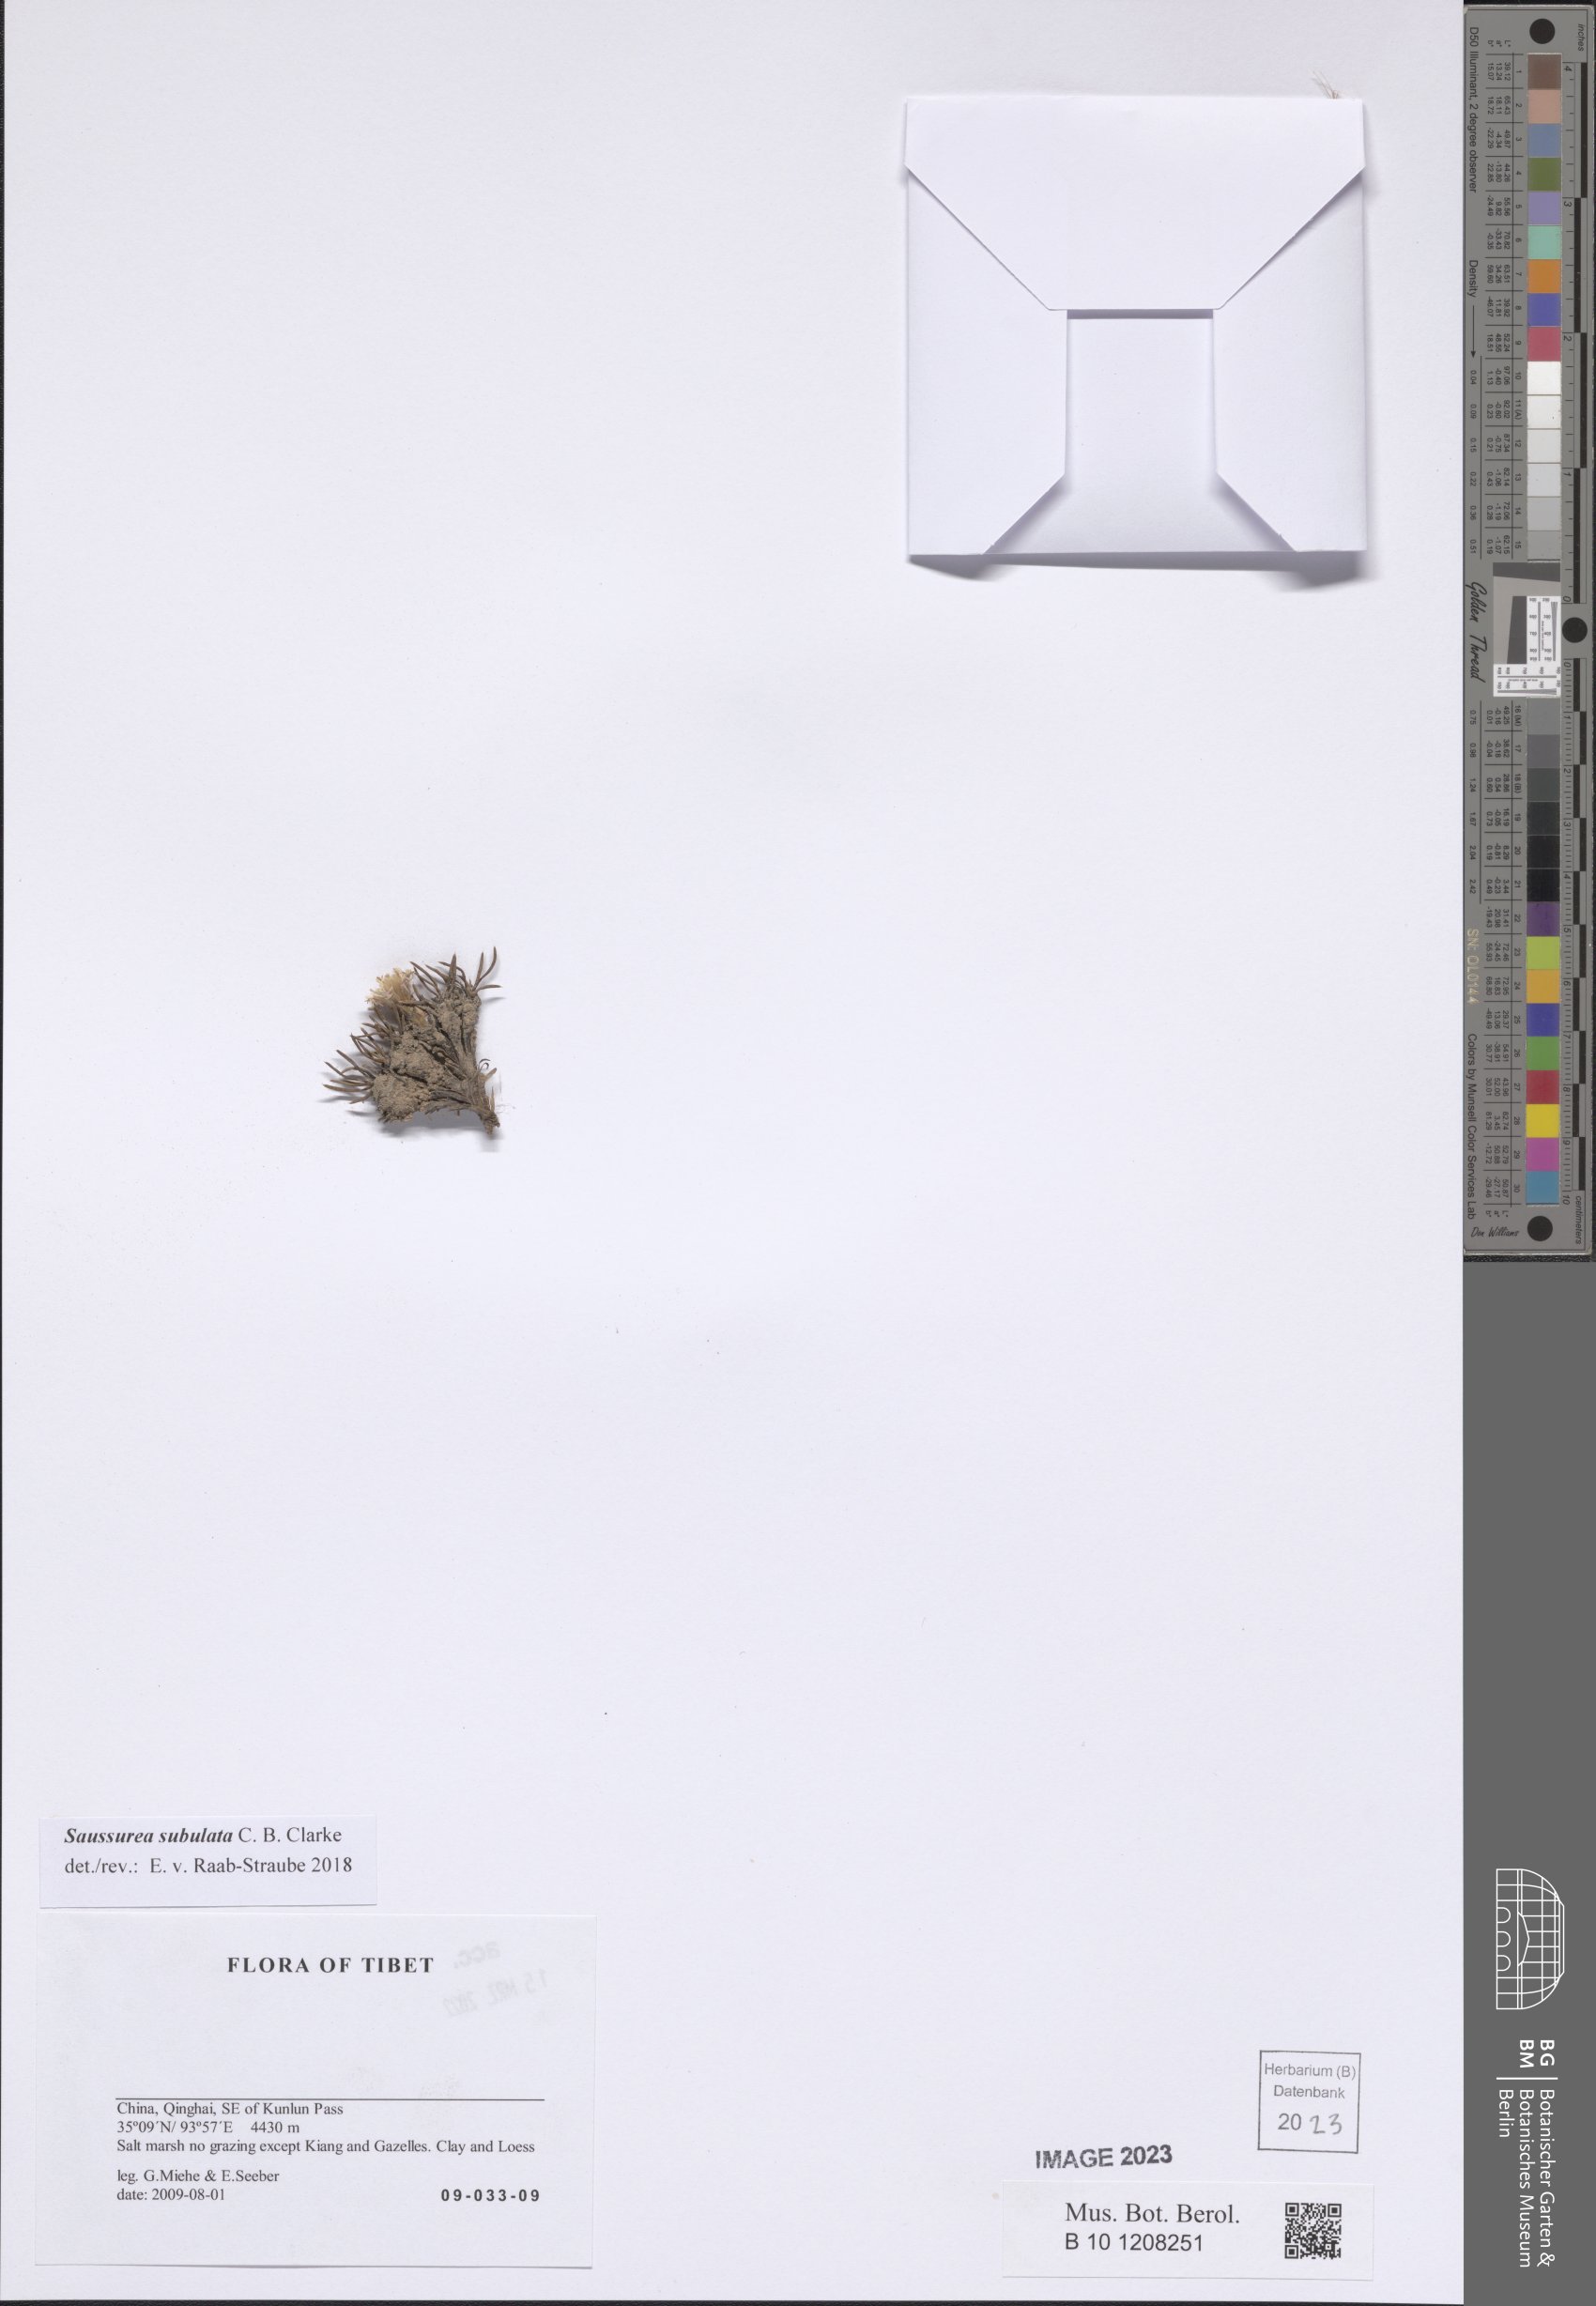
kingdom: Plantae
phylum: Tracheophyta
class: Magnoliopsida
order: Asterales
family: Asteraceae
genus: Saussurea
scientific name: Saussurea subulata
